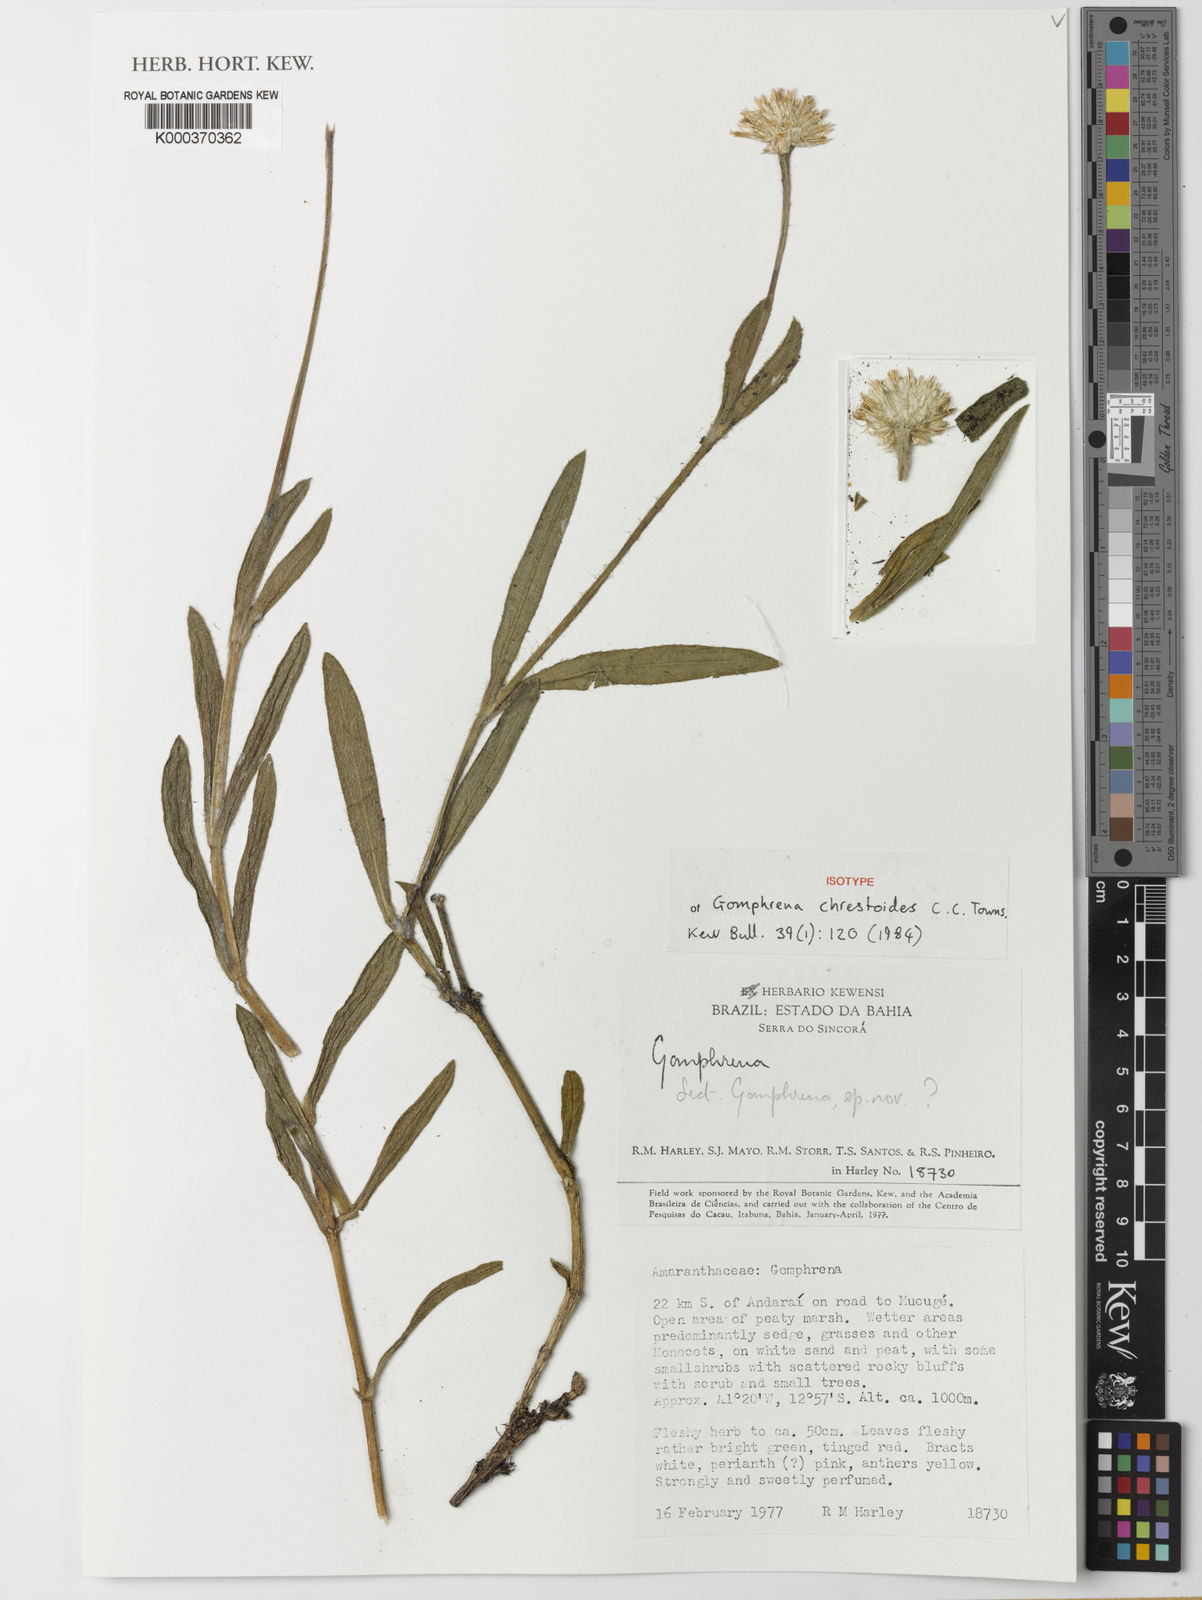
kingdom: Plantae
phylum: Tracheophyta
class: Magnoliopsida
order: Caryophyllales
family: Amaranthaceae
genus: Gomphrena
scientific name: Gomphrena chrestoides
